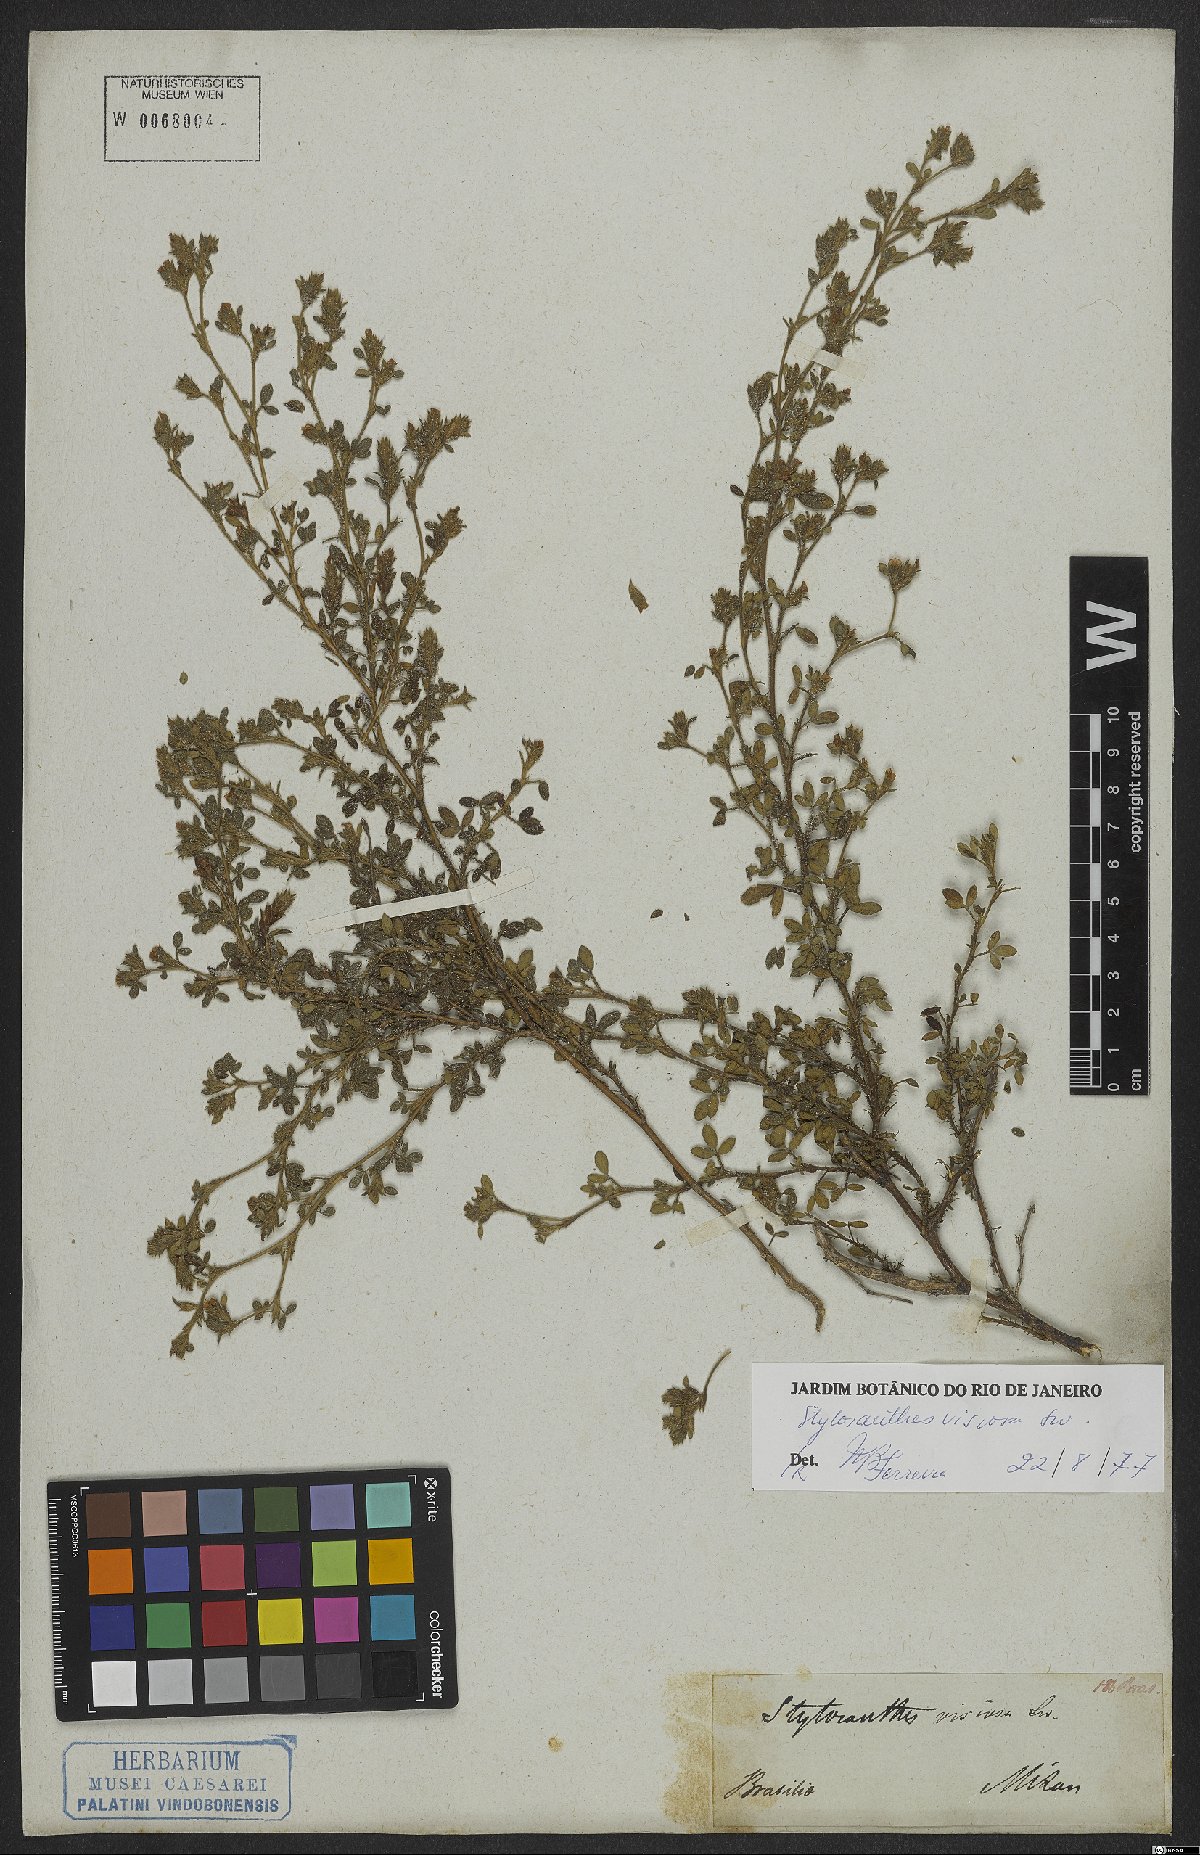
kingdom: Plantae
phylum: Tracheophyta
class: Magnoliopsida
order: Fabales
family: Fabaceae
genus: Stylosanthes
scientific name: Stylosanthes viscosa
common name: Viscid pencil-flower
